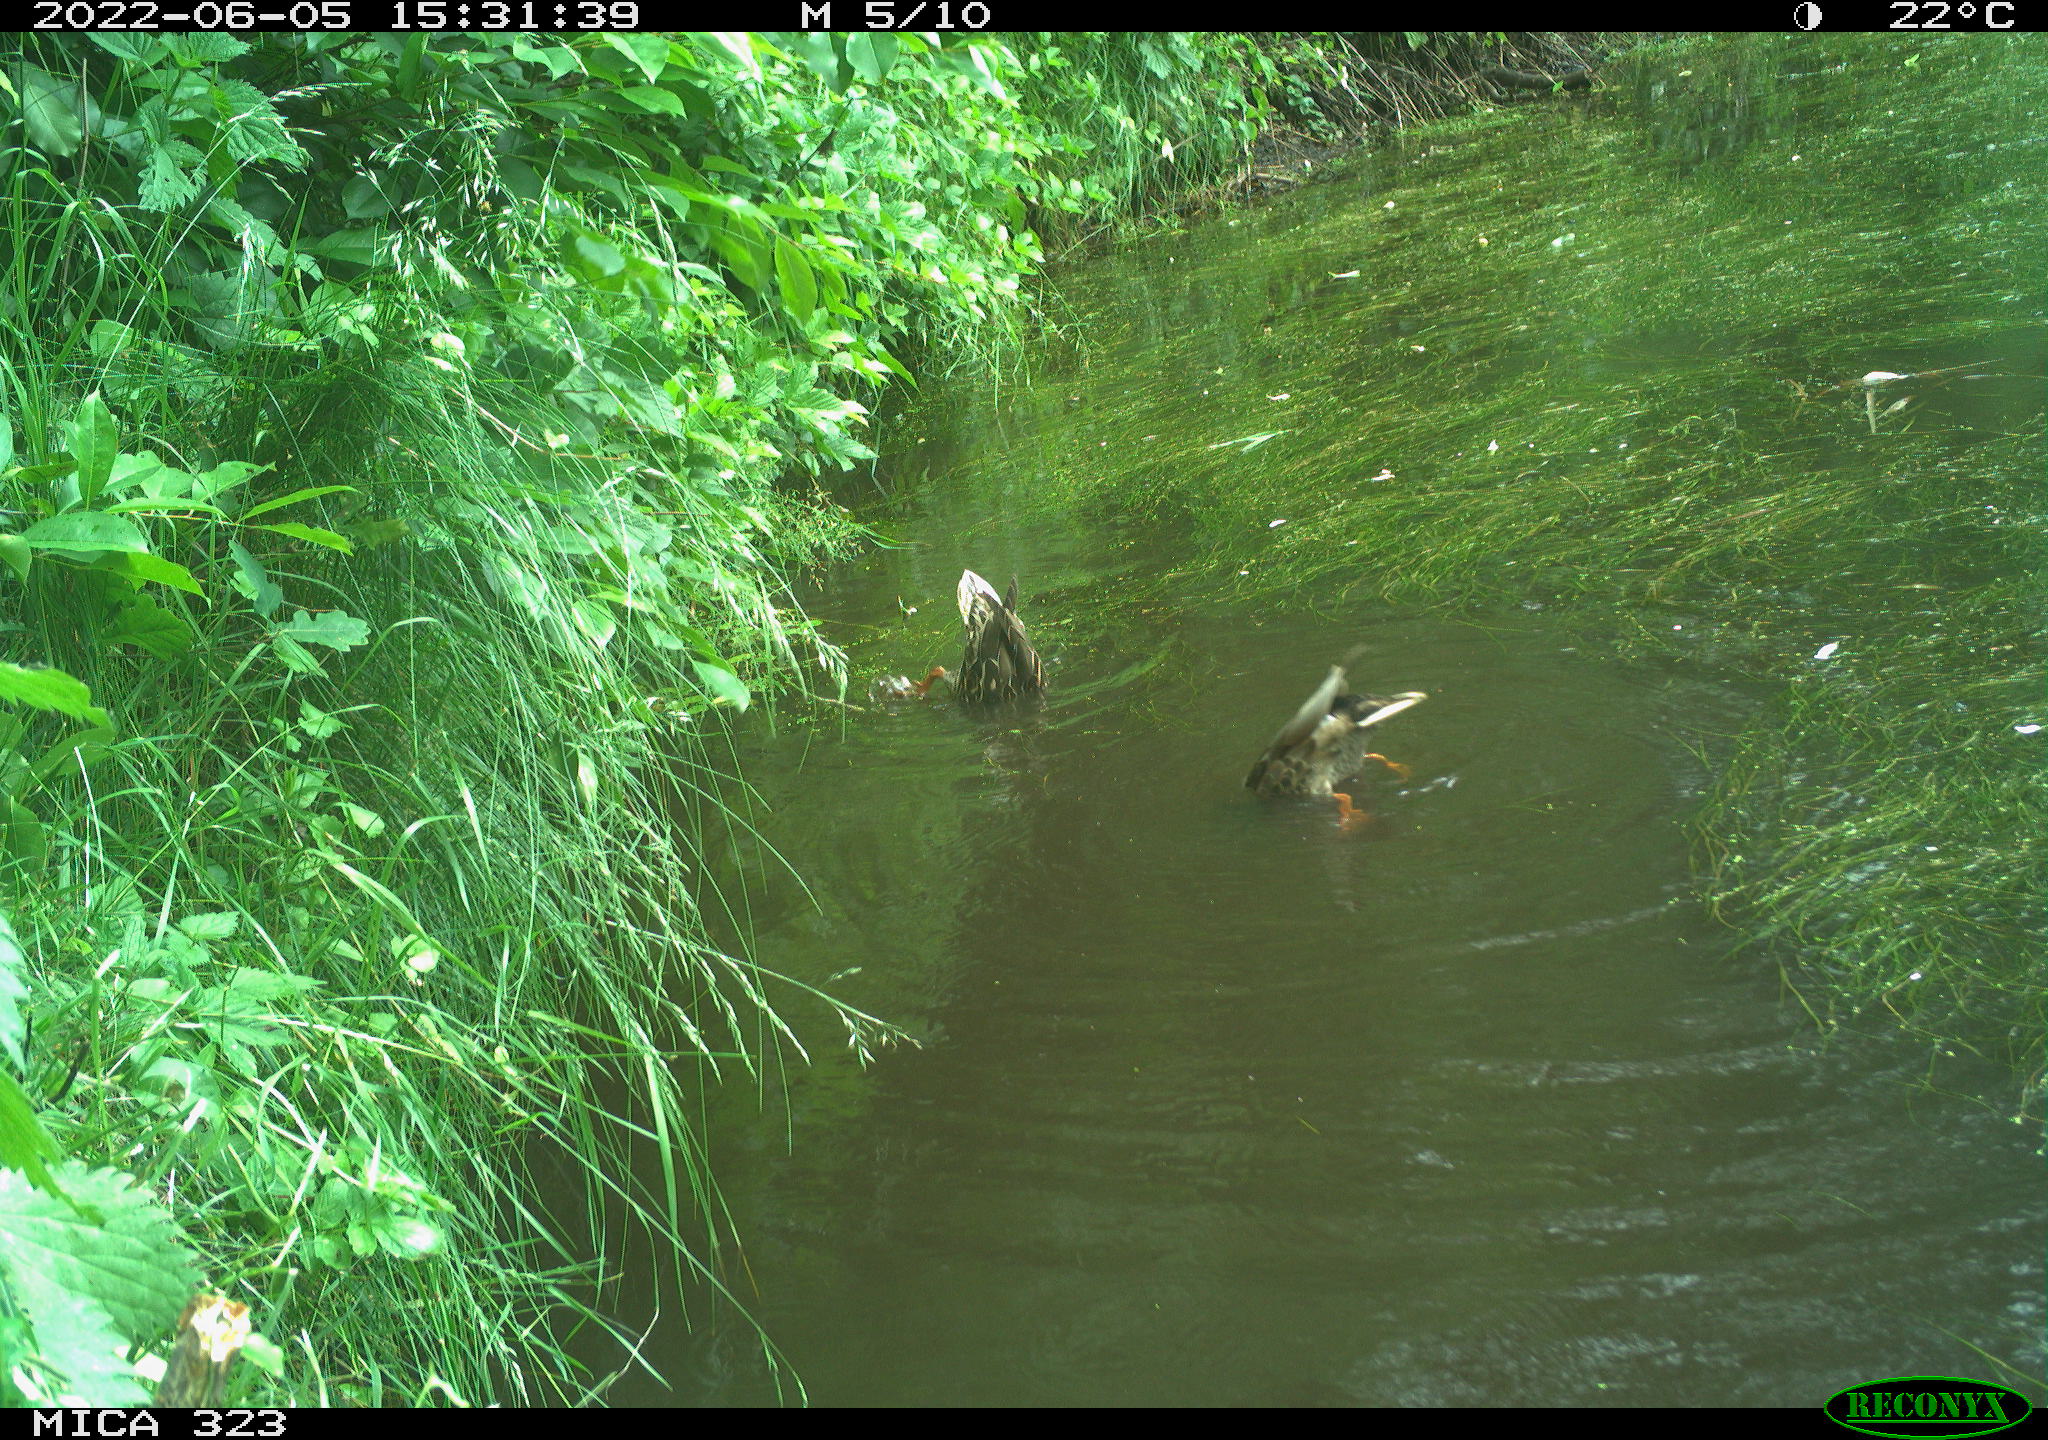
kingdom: Animalia
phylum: Chordata
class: Aves
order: Anseriformes
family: Anatidae
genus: Anas
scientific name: Anas platyrhynchos
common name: Mallard
